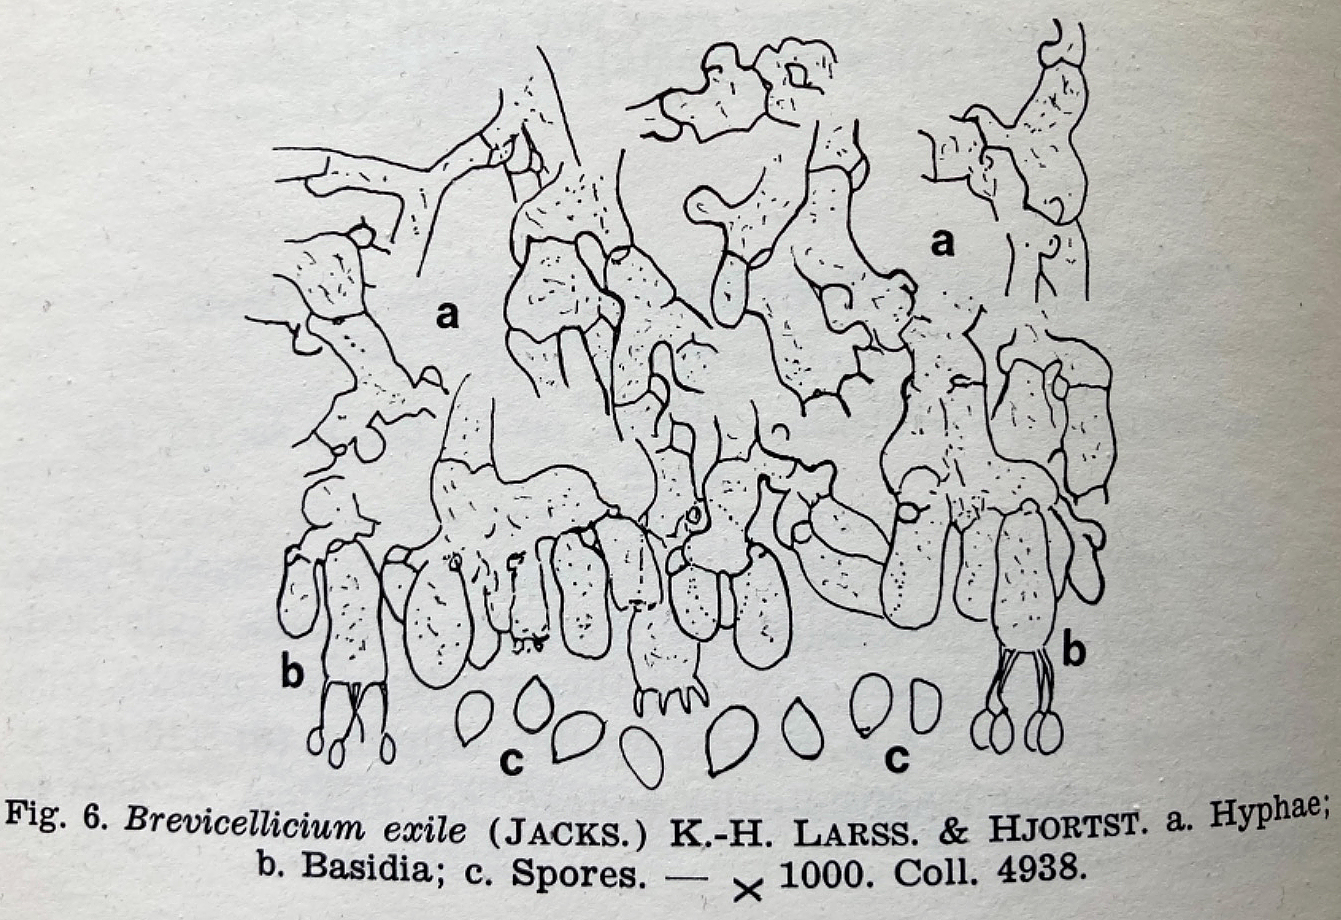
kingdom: Fungi
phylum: Basidiomycota
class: Agaricomycetes
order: Trechisporales
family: Hydnodontaceae
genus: Brevicellicium
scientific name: Brevicellicium exile
